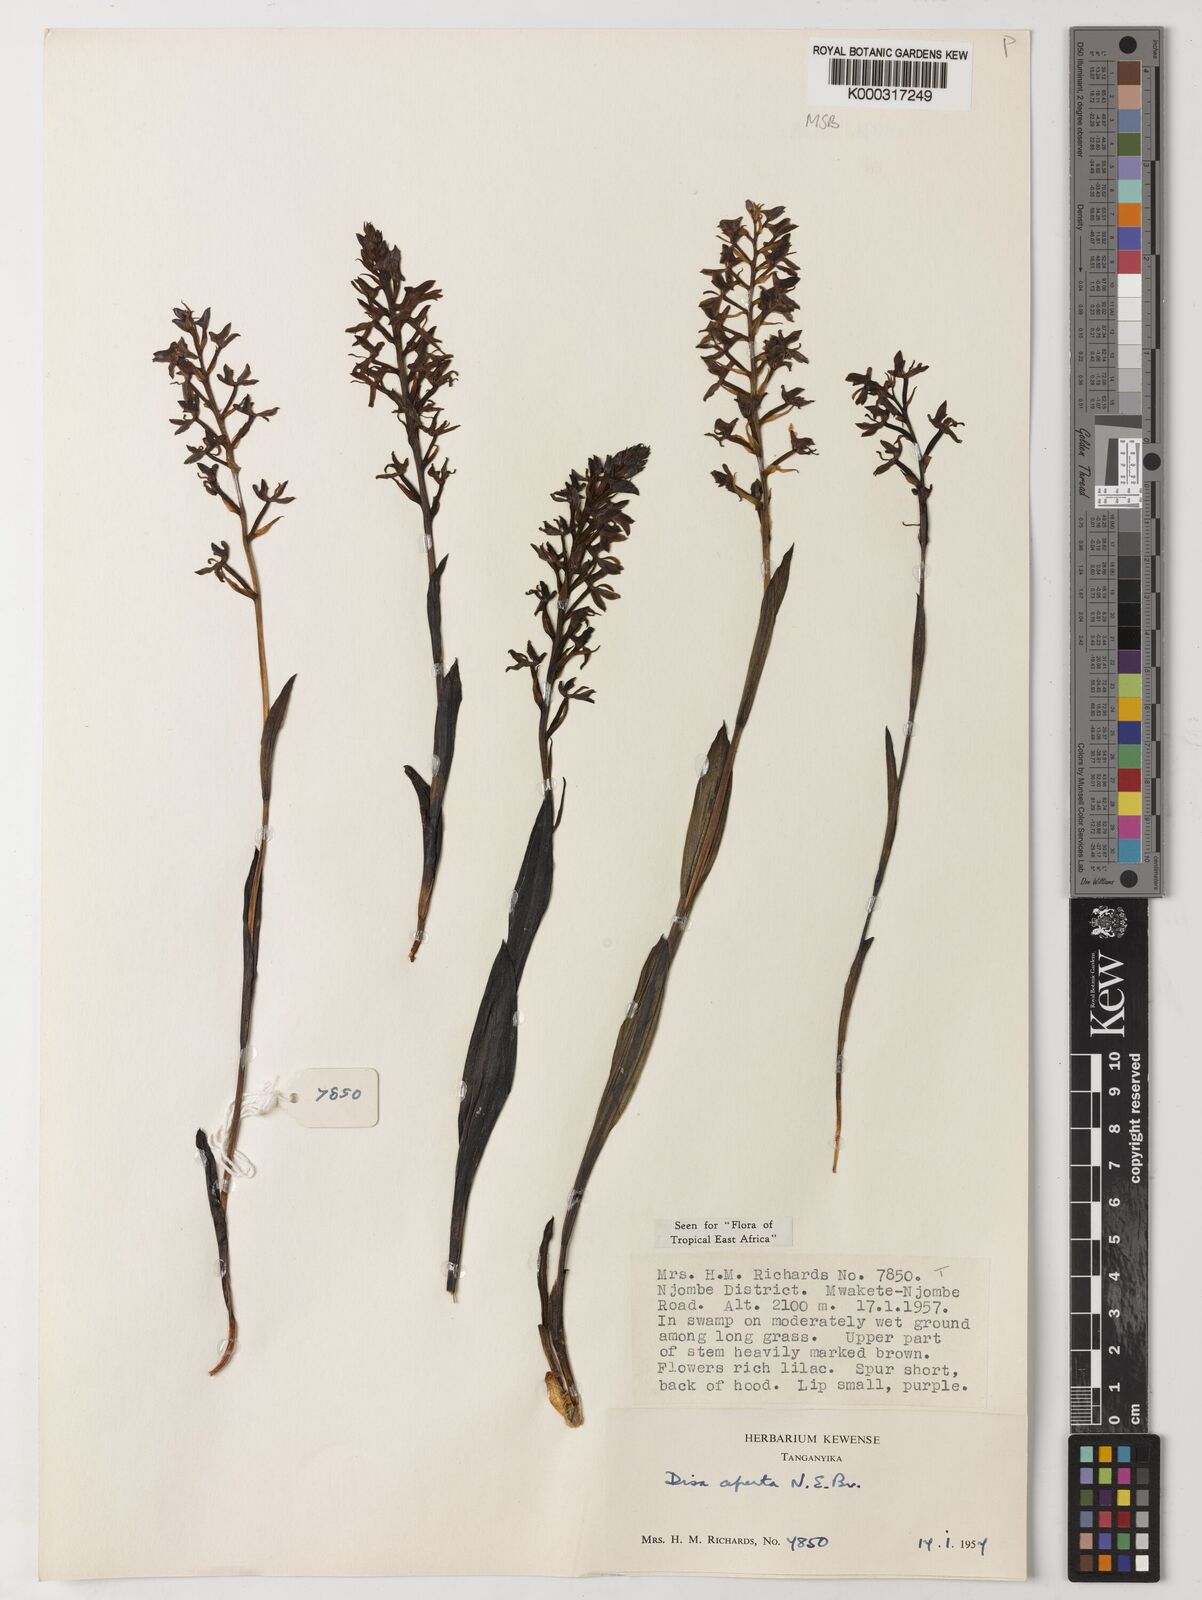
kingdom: Plantae
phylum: Tracheophyta
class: Liliopsida
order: Asparagales
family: Orchidaceae
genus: Disa
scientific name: Disa aperta
